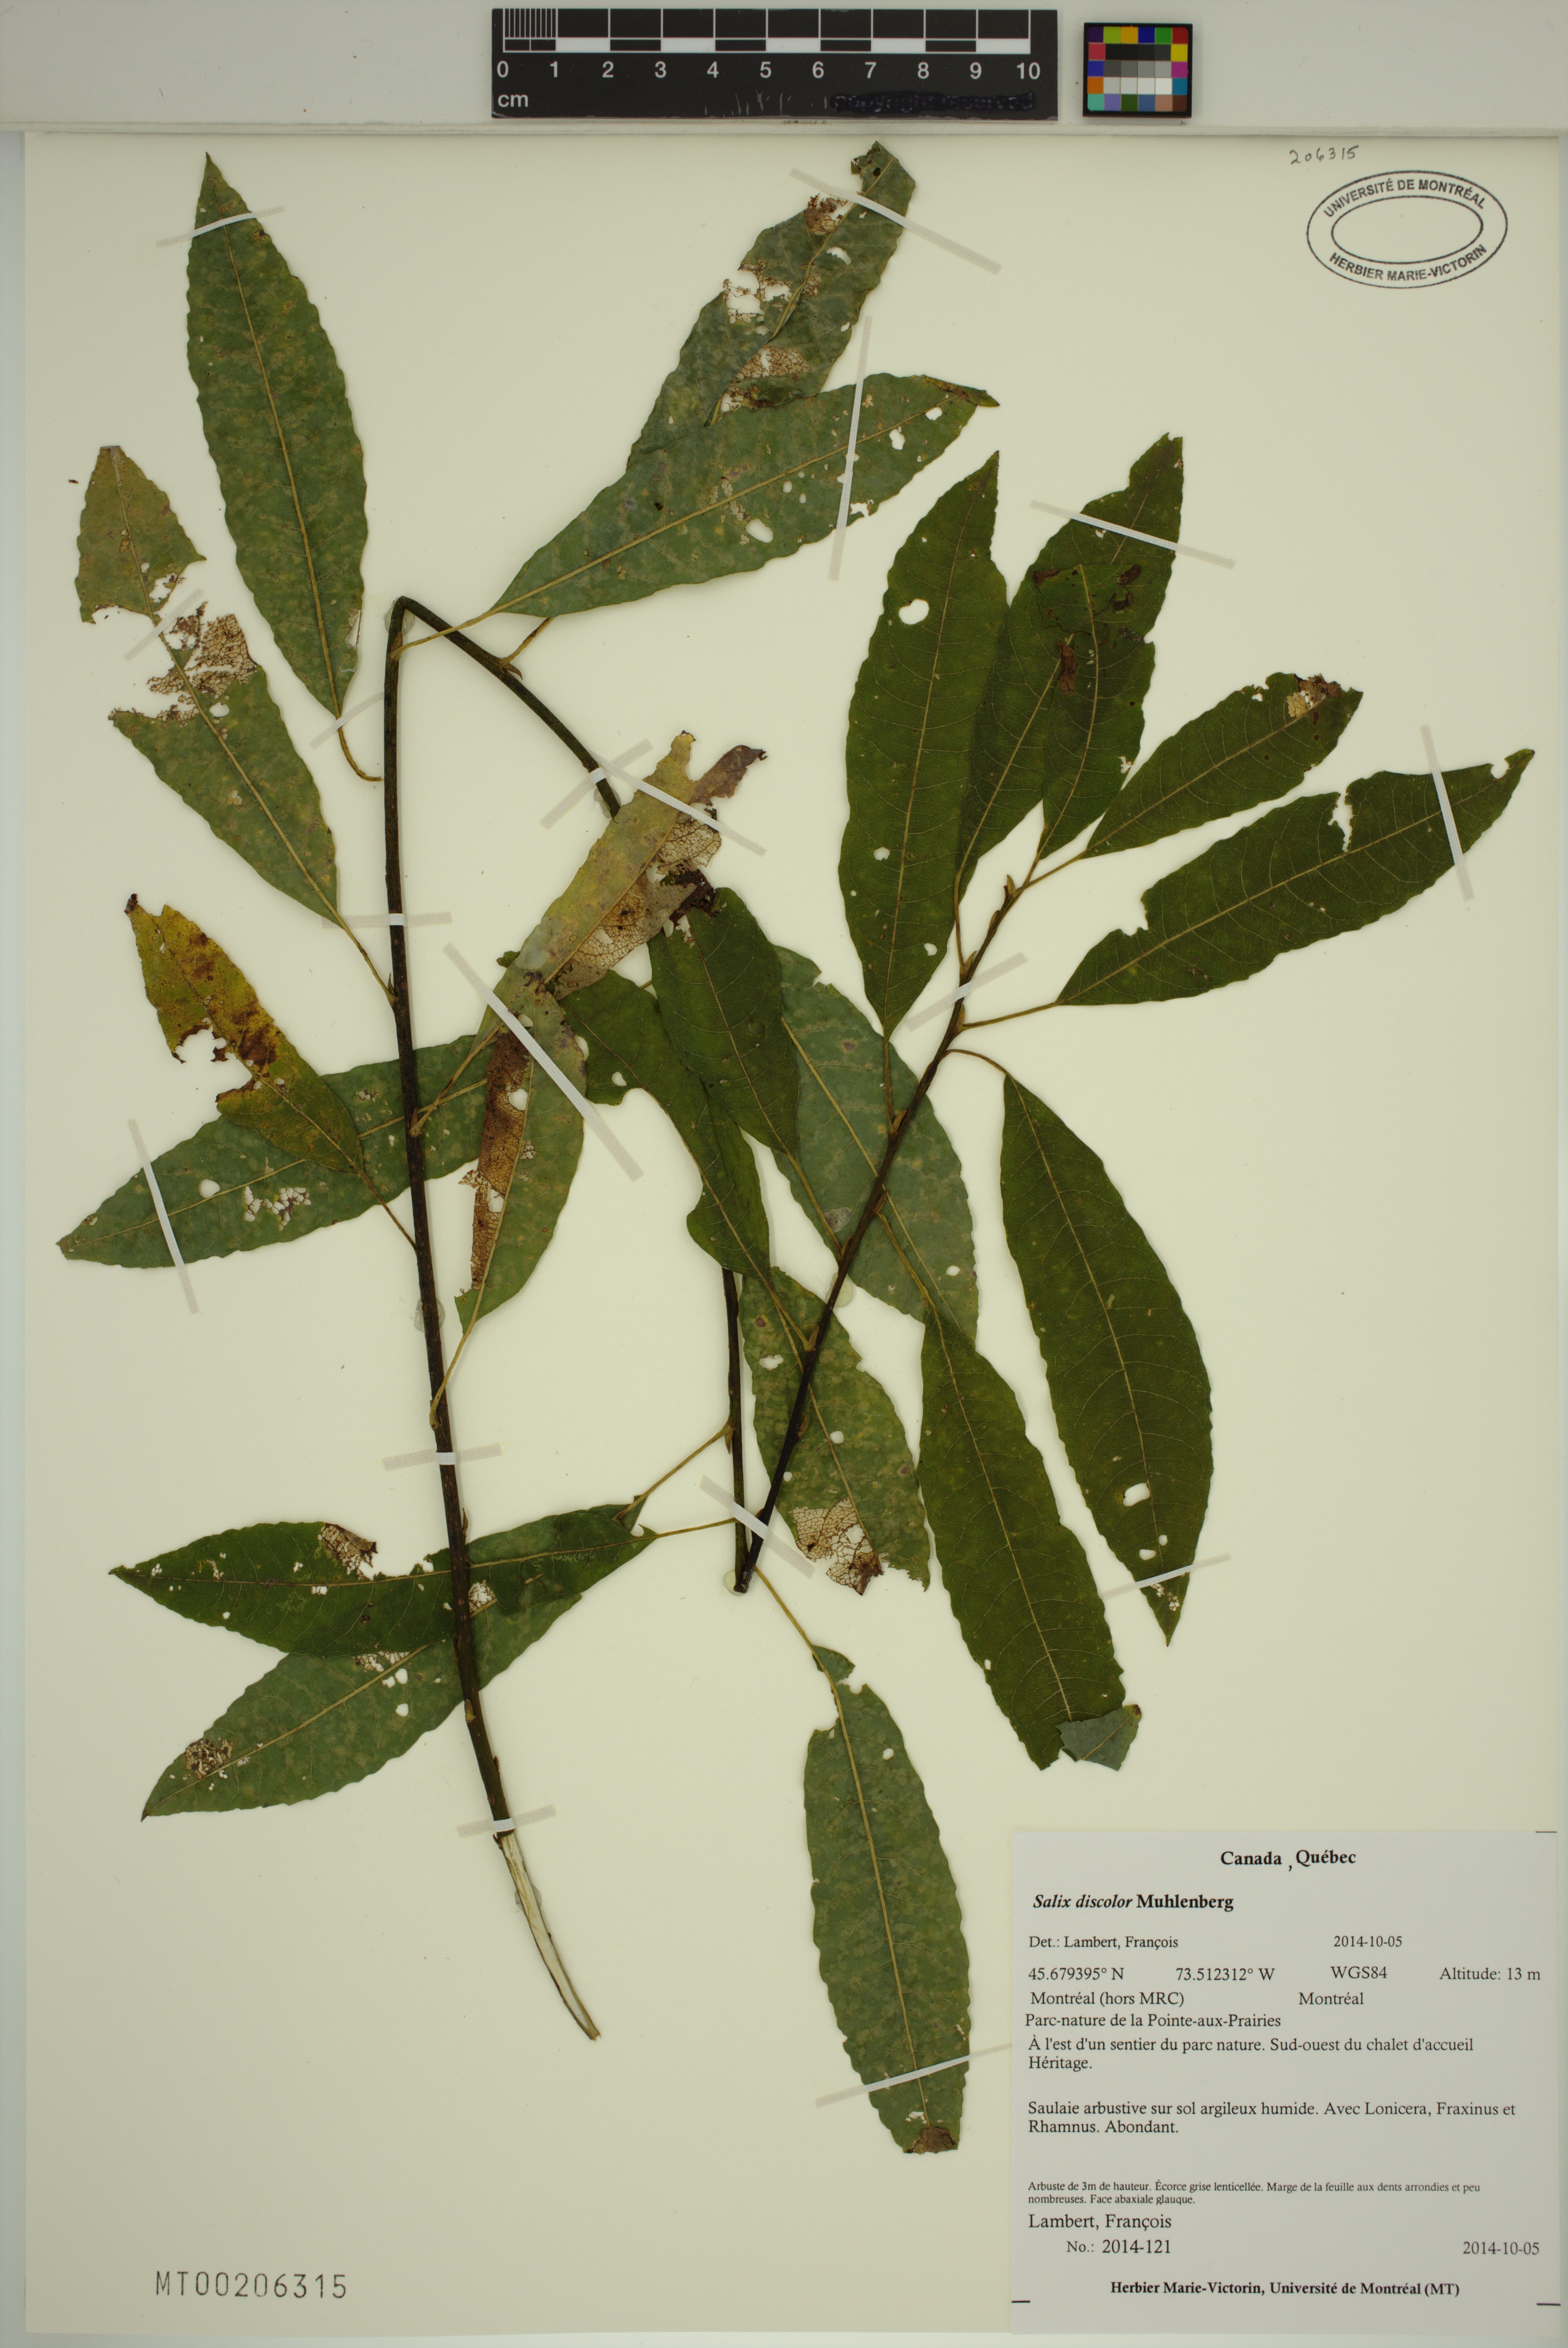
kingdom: Plantae
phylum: Tracheophyta
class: Magnoliopsida
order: Malpighiales
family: Salicaceae
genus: Salix
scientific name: Salix discolor
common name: Glaucous willow
